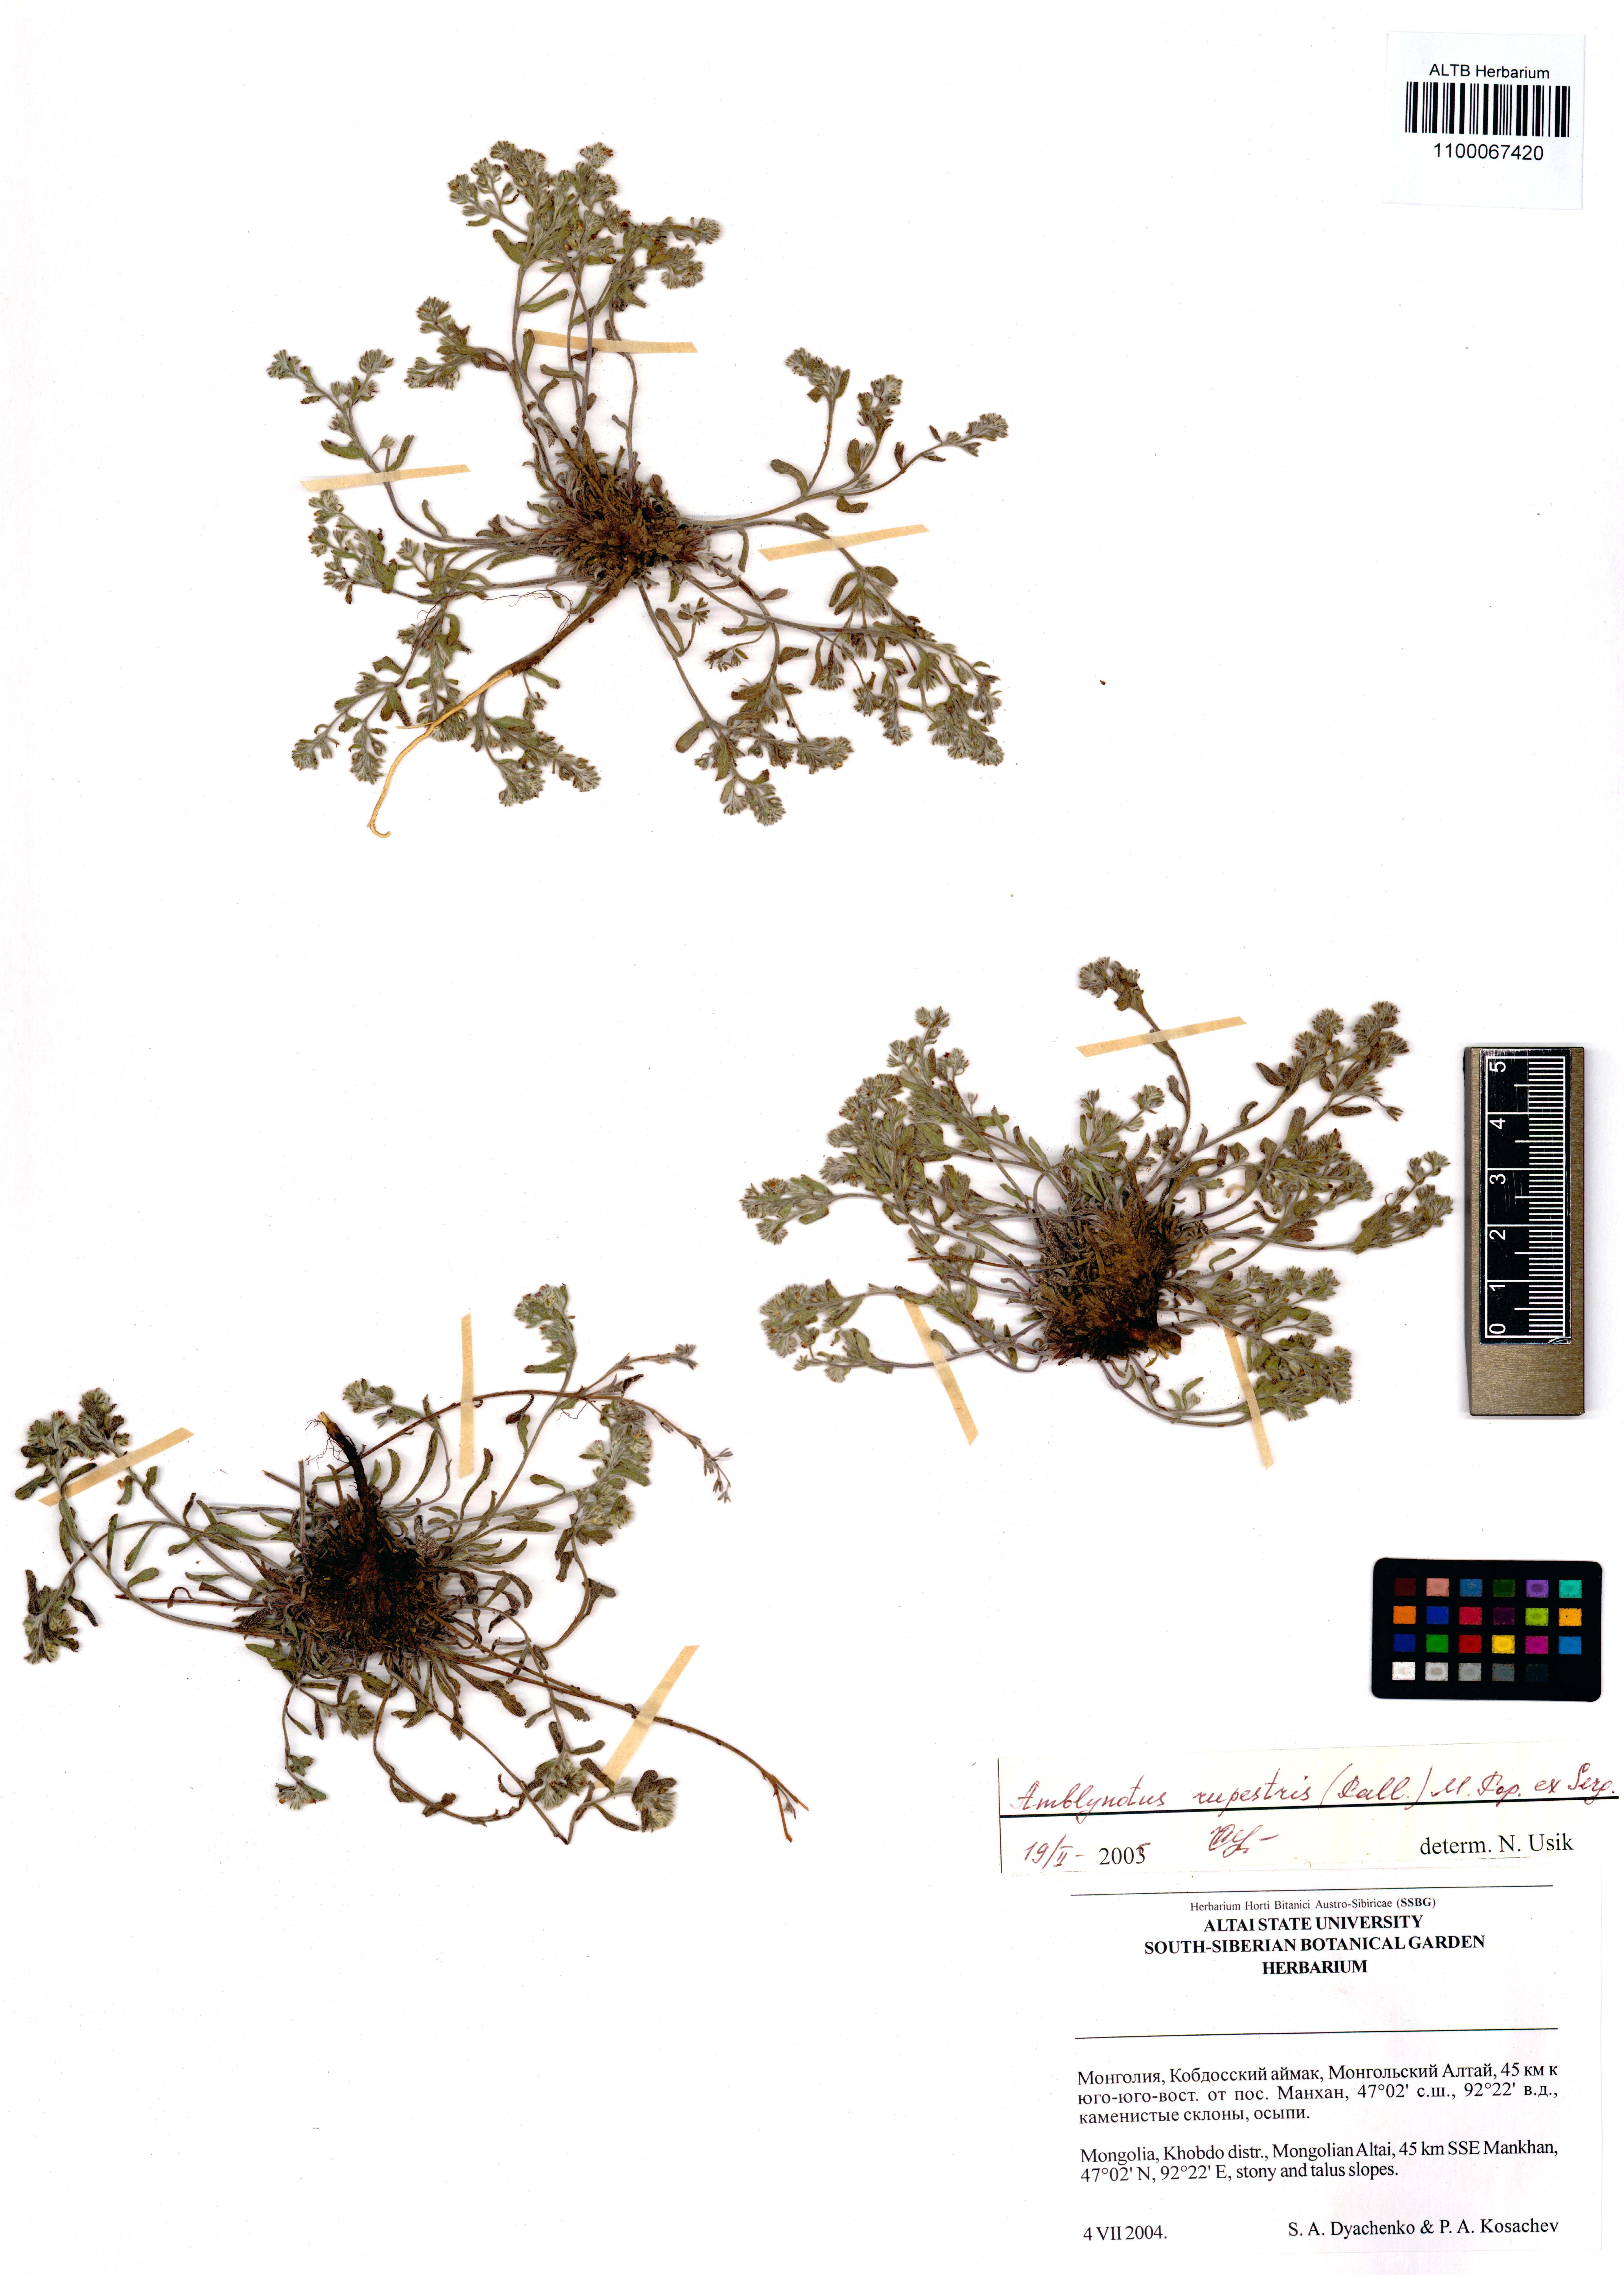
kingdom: Plantae
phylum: Tracheophyta
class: Magnoliopsida
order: Boraginales
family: Boraginaceae
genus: Eritrichium
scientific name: Eritrichium rupestre
